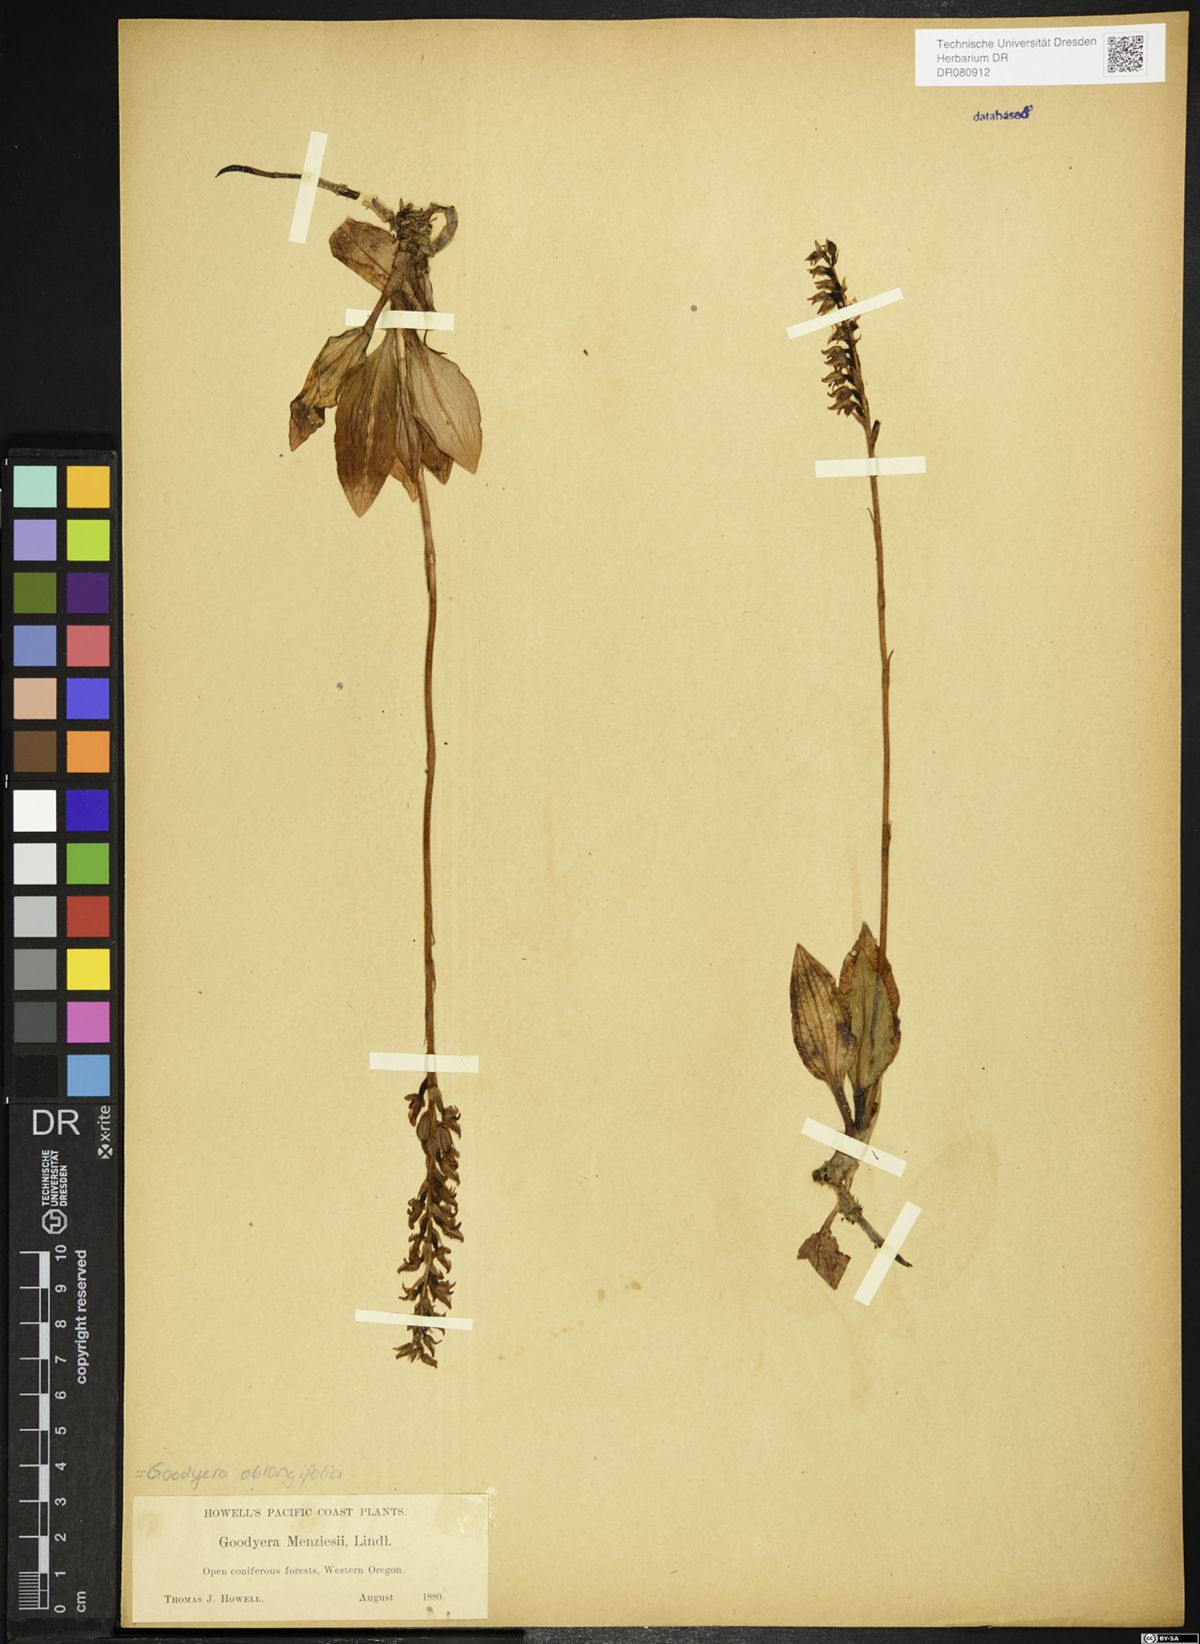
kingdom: Plantae
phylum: Tracheophyta
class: Liliopsida
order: Asparagales
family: Orchidaceae
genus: Goodyera
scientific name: Goodyera
